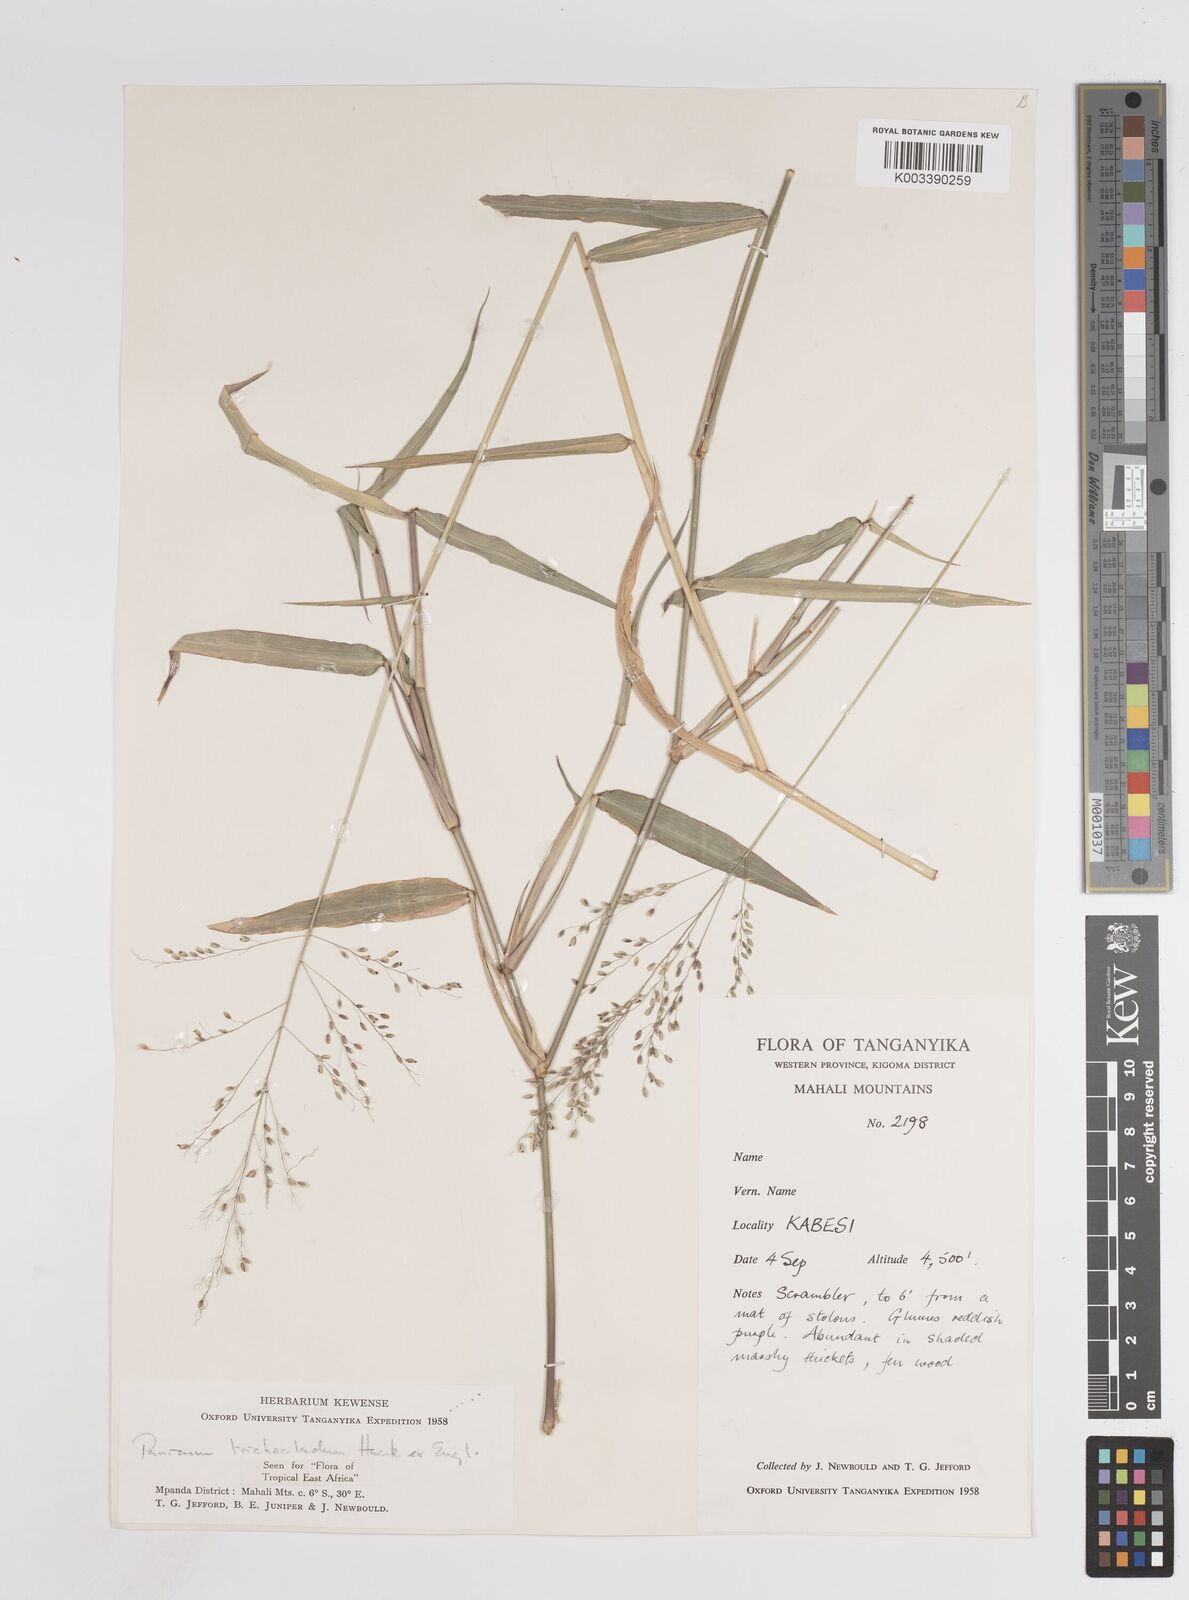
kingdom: Plantae
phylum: Tracheophyta
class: Liliopsida
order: Poales
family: Poaceae
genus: Panicum
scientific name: Panicum trichocladum
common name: Donkey grass
